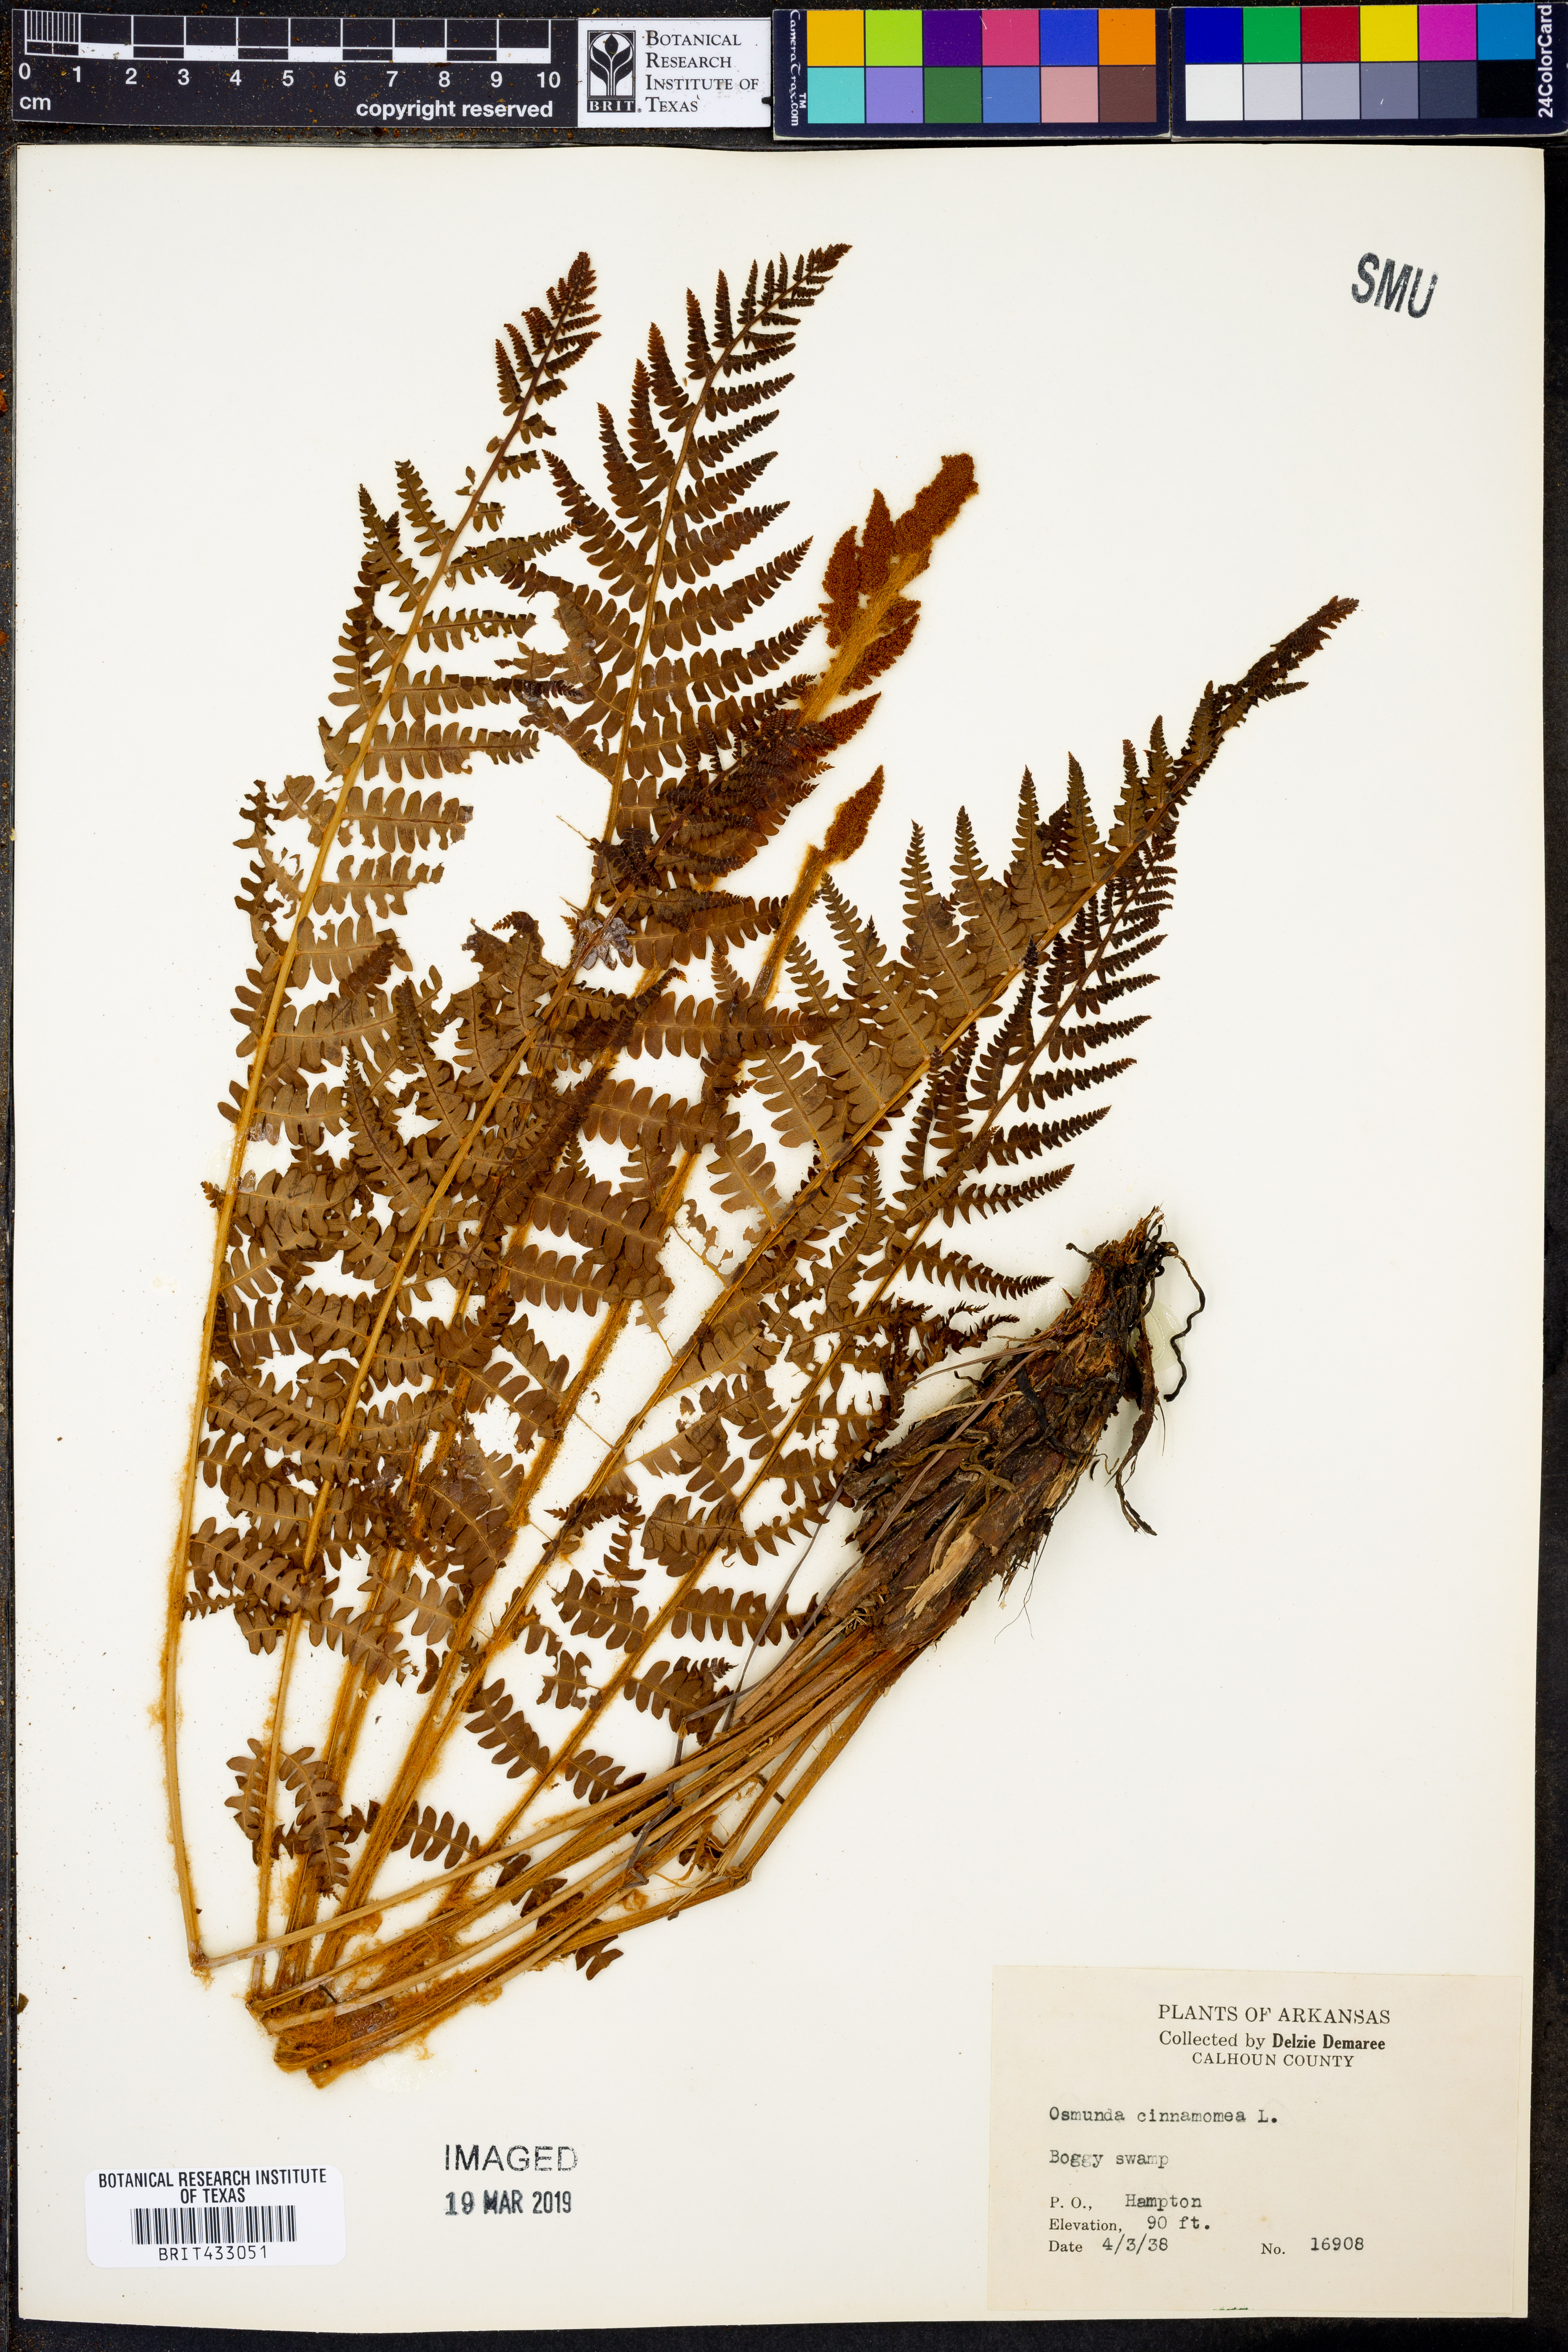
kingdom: Plantae
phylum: Tracheophyta
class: Polypodiopsida
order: Osmundales
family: Osmundaceae
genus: Osmundastrum
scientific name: Osmundastrum cinnamomeum
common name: Cinnamon fern
